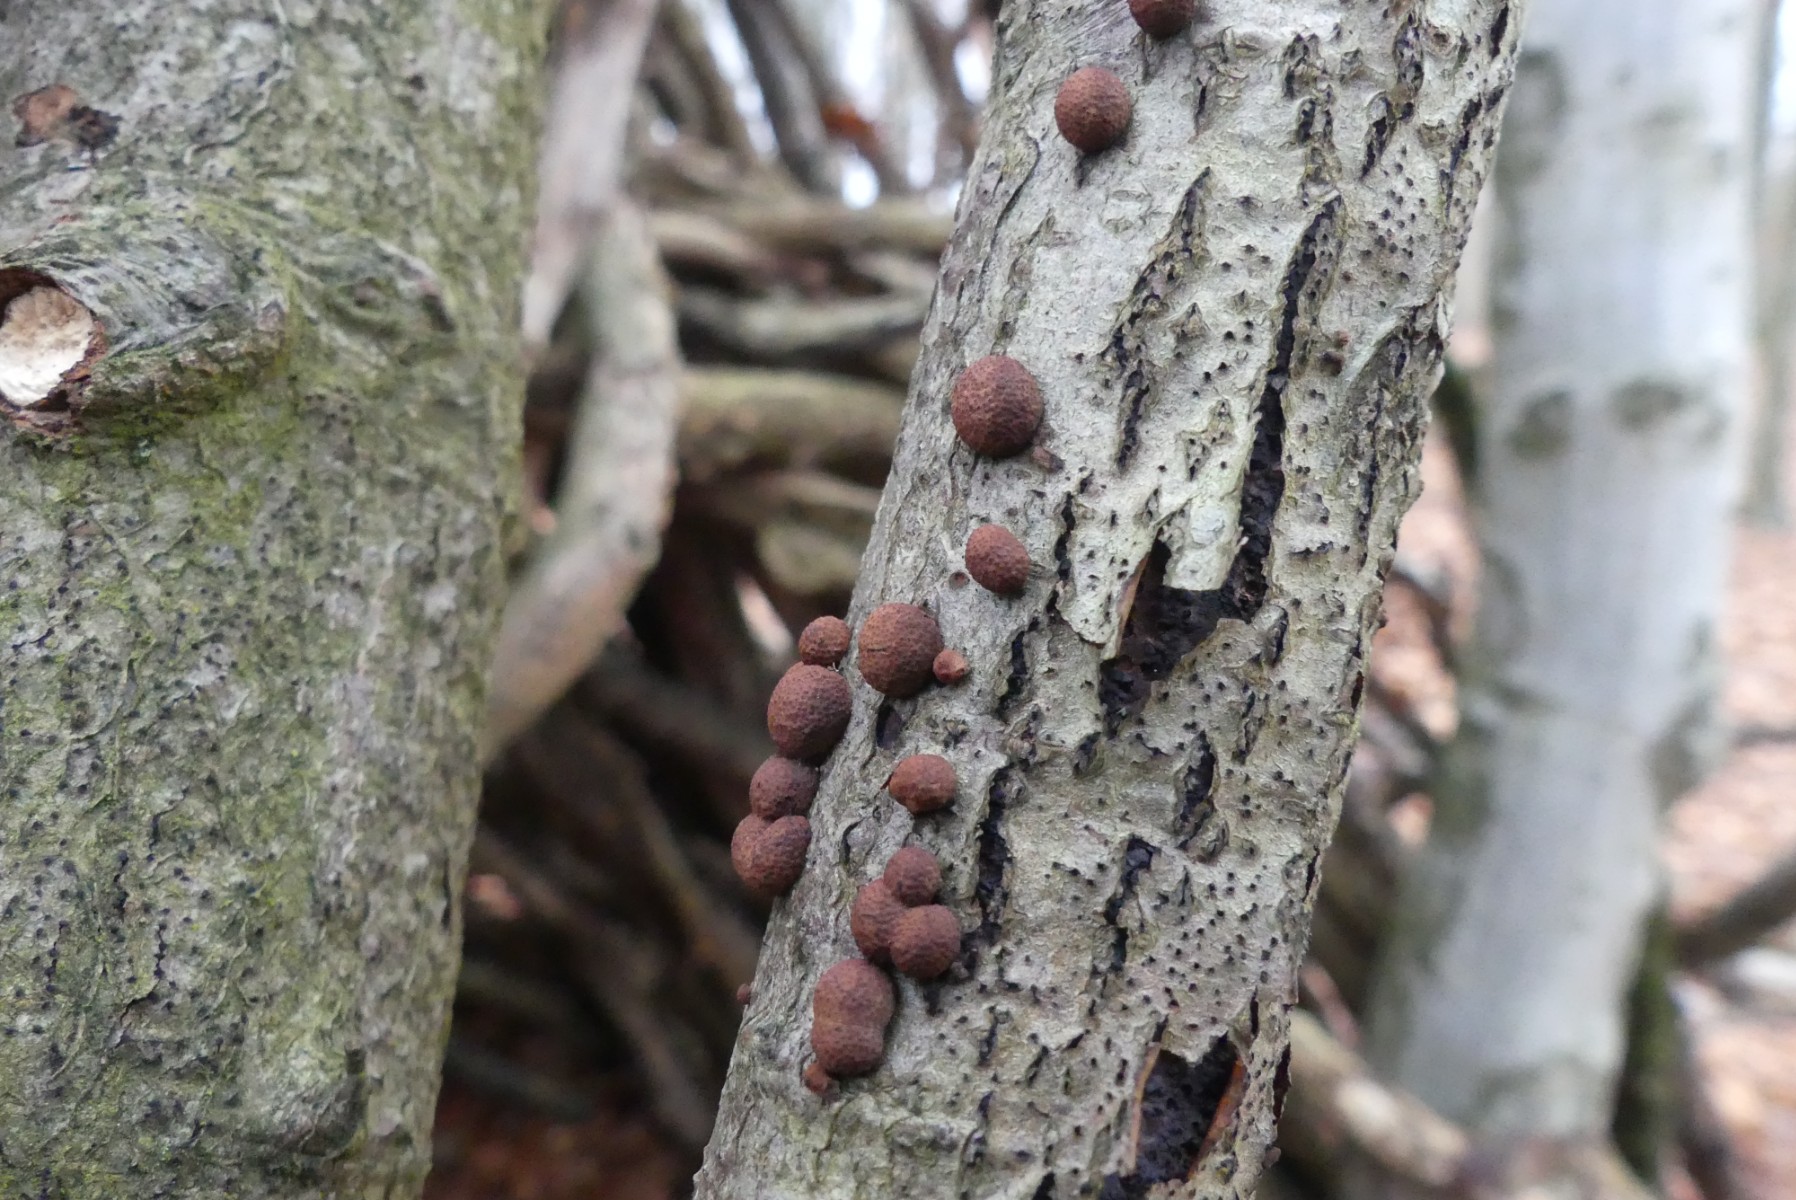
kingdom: Fungi
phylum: Ascomycota
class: Sordariomycetes
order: Xylariales
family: Hypoxylaceae
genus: Hypoxylon
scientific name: Hypoxylon fragiforme
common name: kuljordbær
